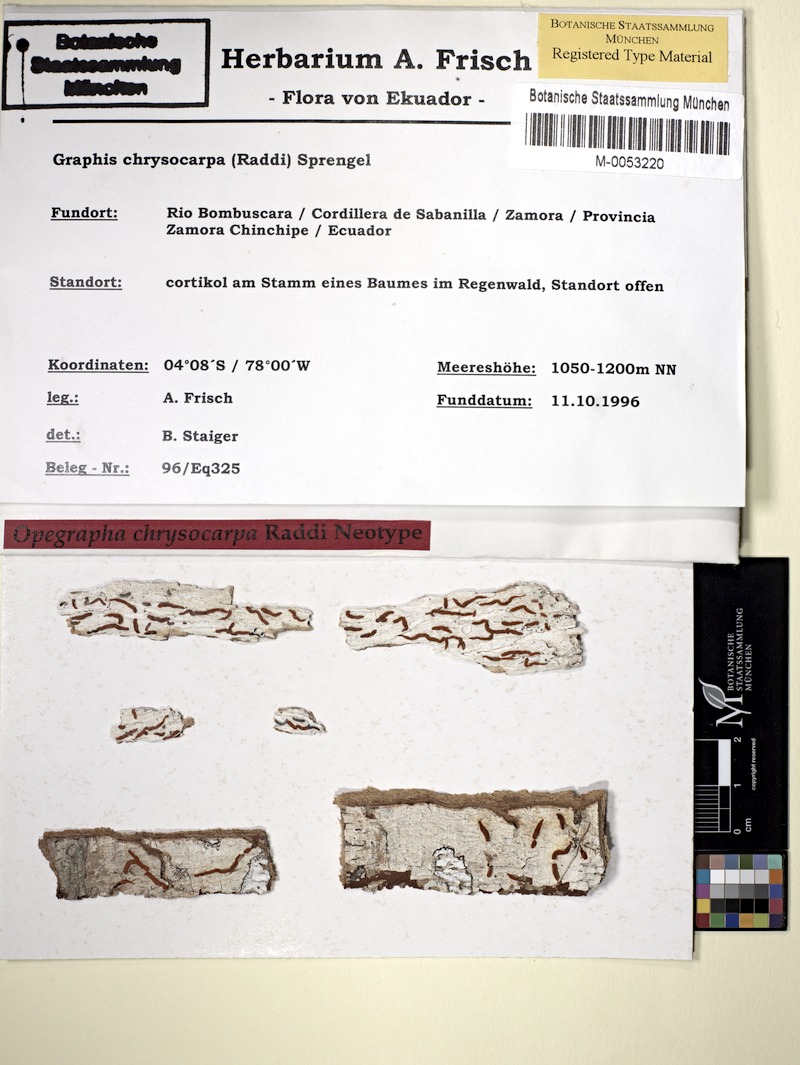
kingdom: Fungi
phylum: Ascomycota
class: Lecanoromycetes
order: Ostropales
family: Graphidaceae
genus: Allographa
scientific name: Allographa chrysocarpa
